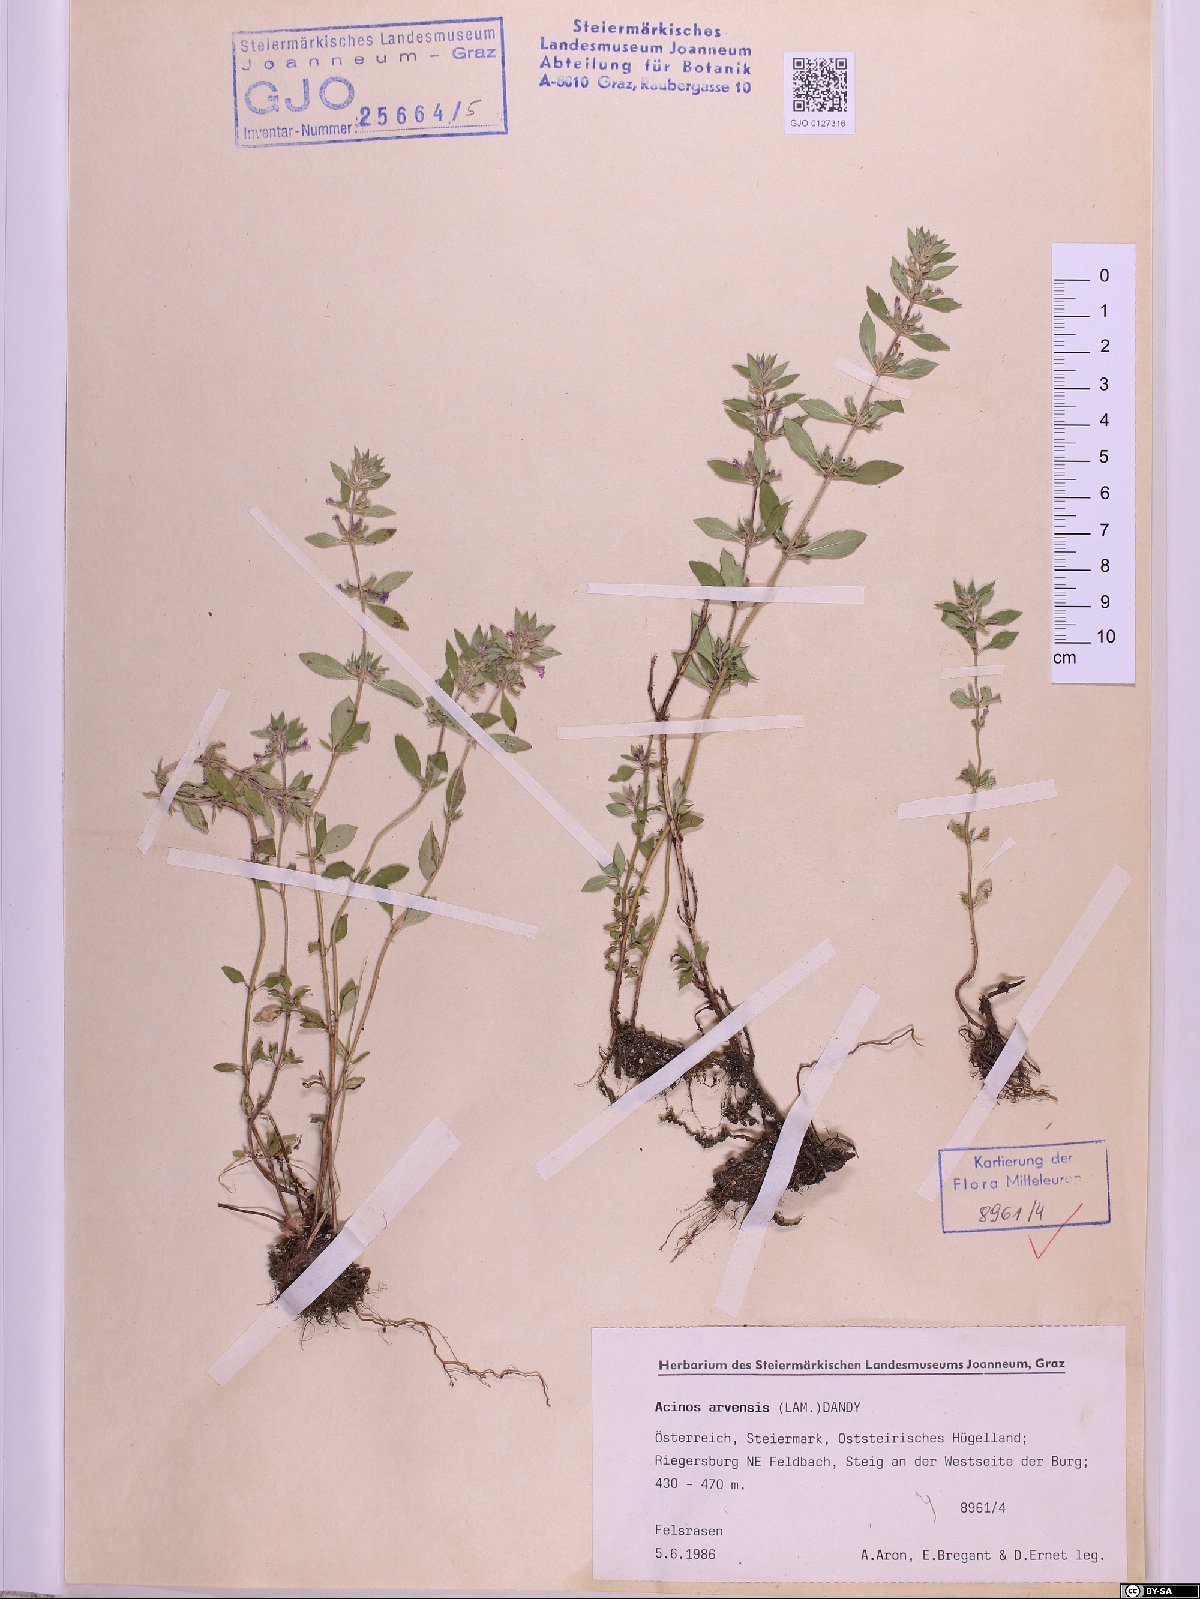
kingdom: Plantae
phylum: Tracheophyta
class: Magnoliopsida
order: Lamiales
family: Lamiaceae
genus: Clinopodium
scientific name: Clinopodium acinos
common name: Basil thyme
